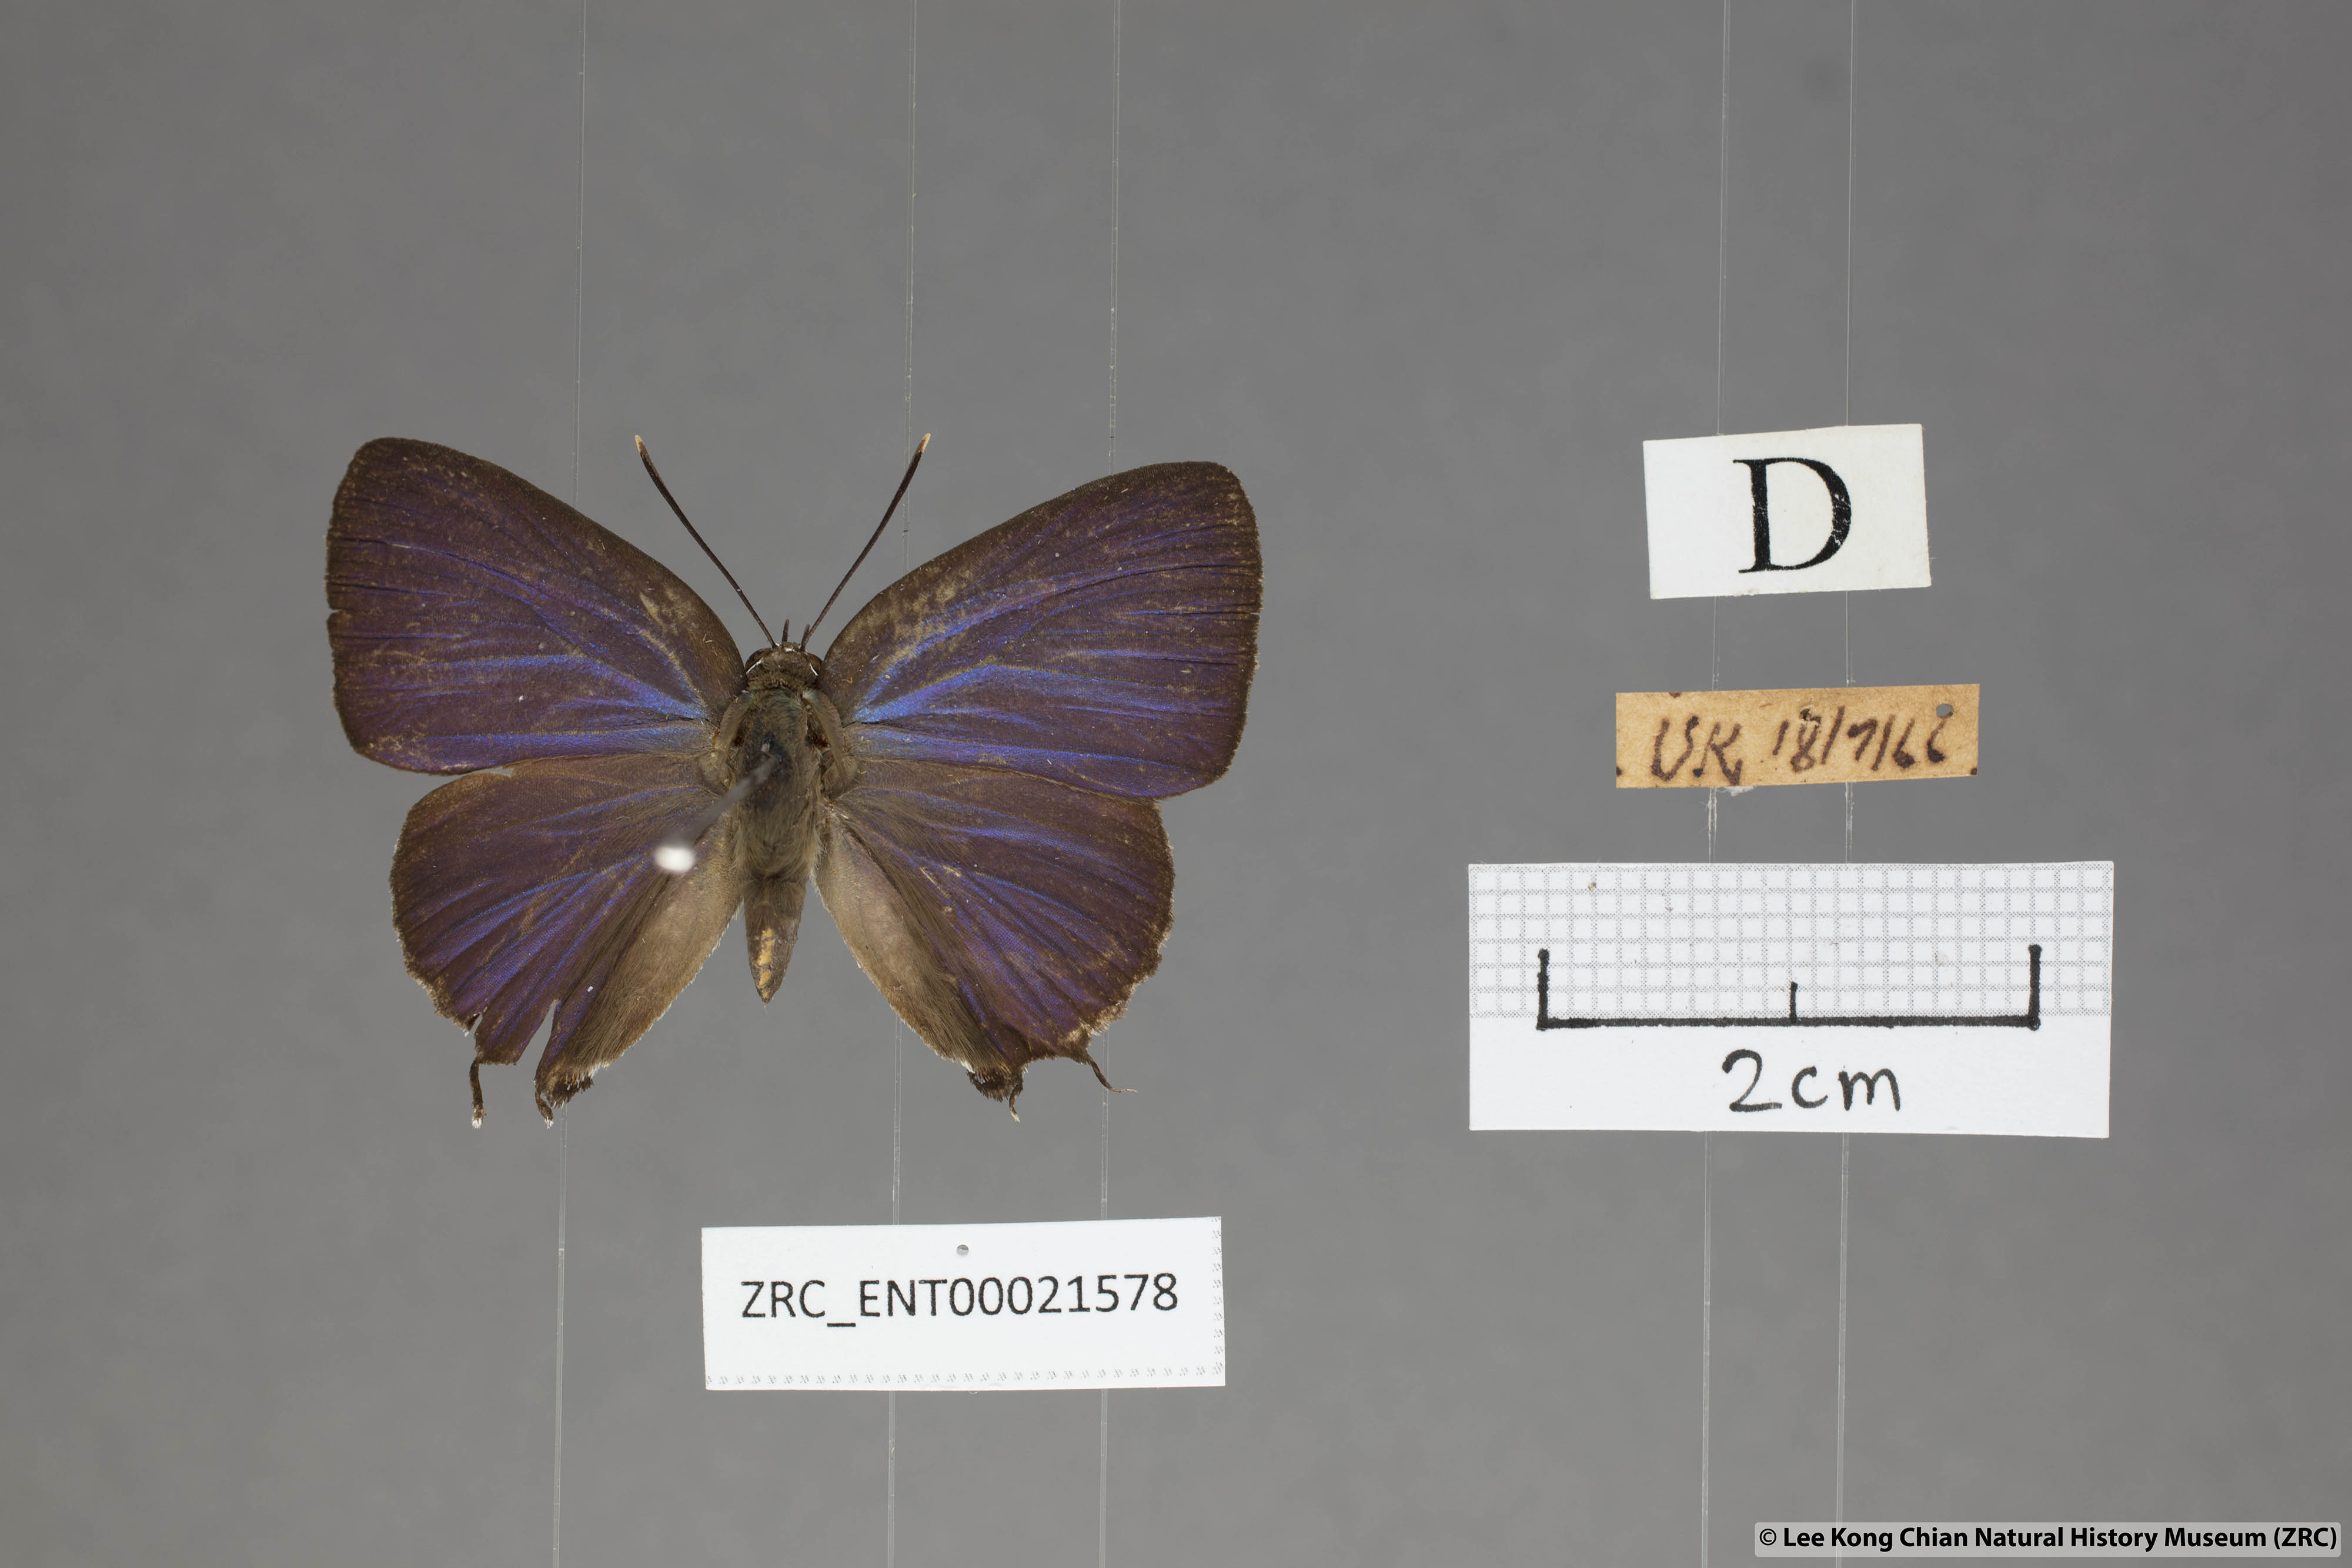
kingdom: Animalia
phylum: Arthropoda
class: Insecta
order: Lepidoptera
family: Lycaenidae
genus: Iraota
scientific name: Iraota
